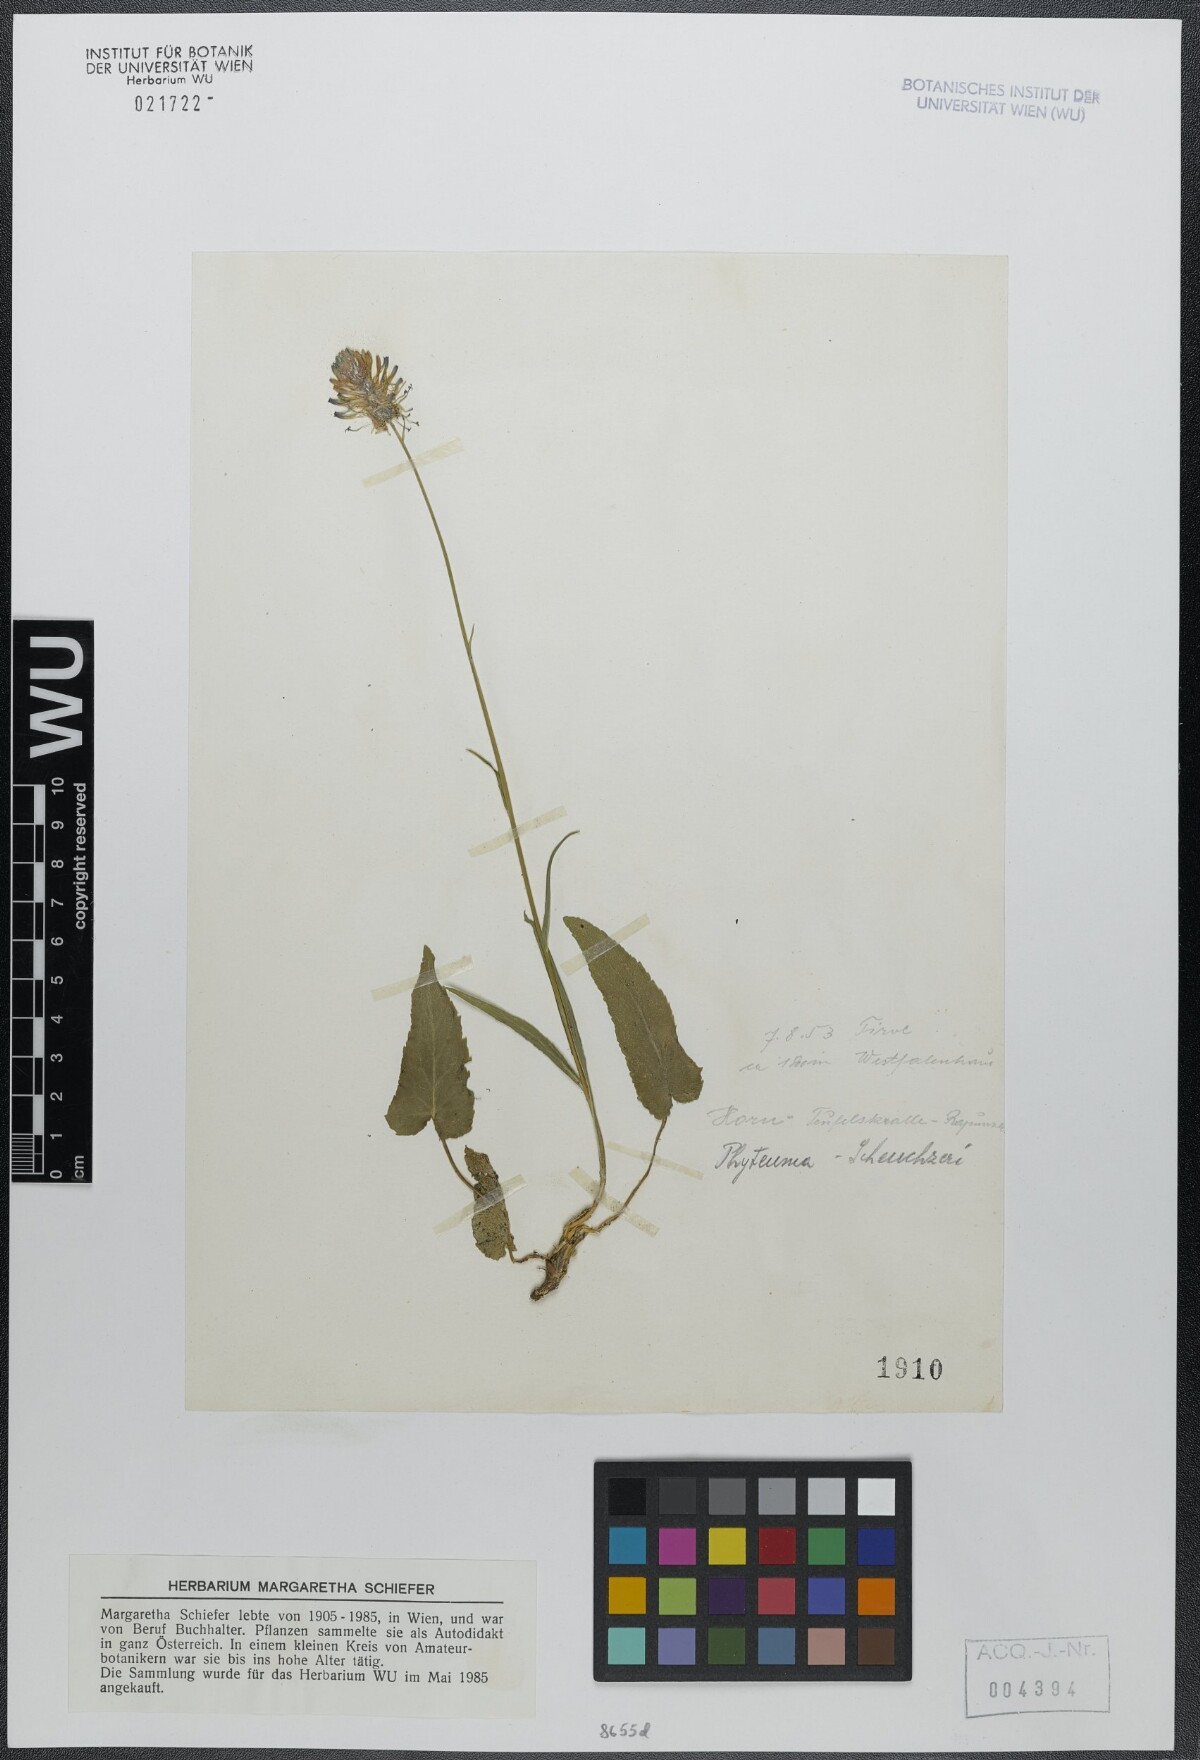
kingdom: Plantae
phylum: Tracheophyta
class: Magnoliopsida
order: Asterales
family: Campanulaceae
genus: Phyteuma
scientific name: Phyteuma scheuchzeri
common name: Oxford rampion
